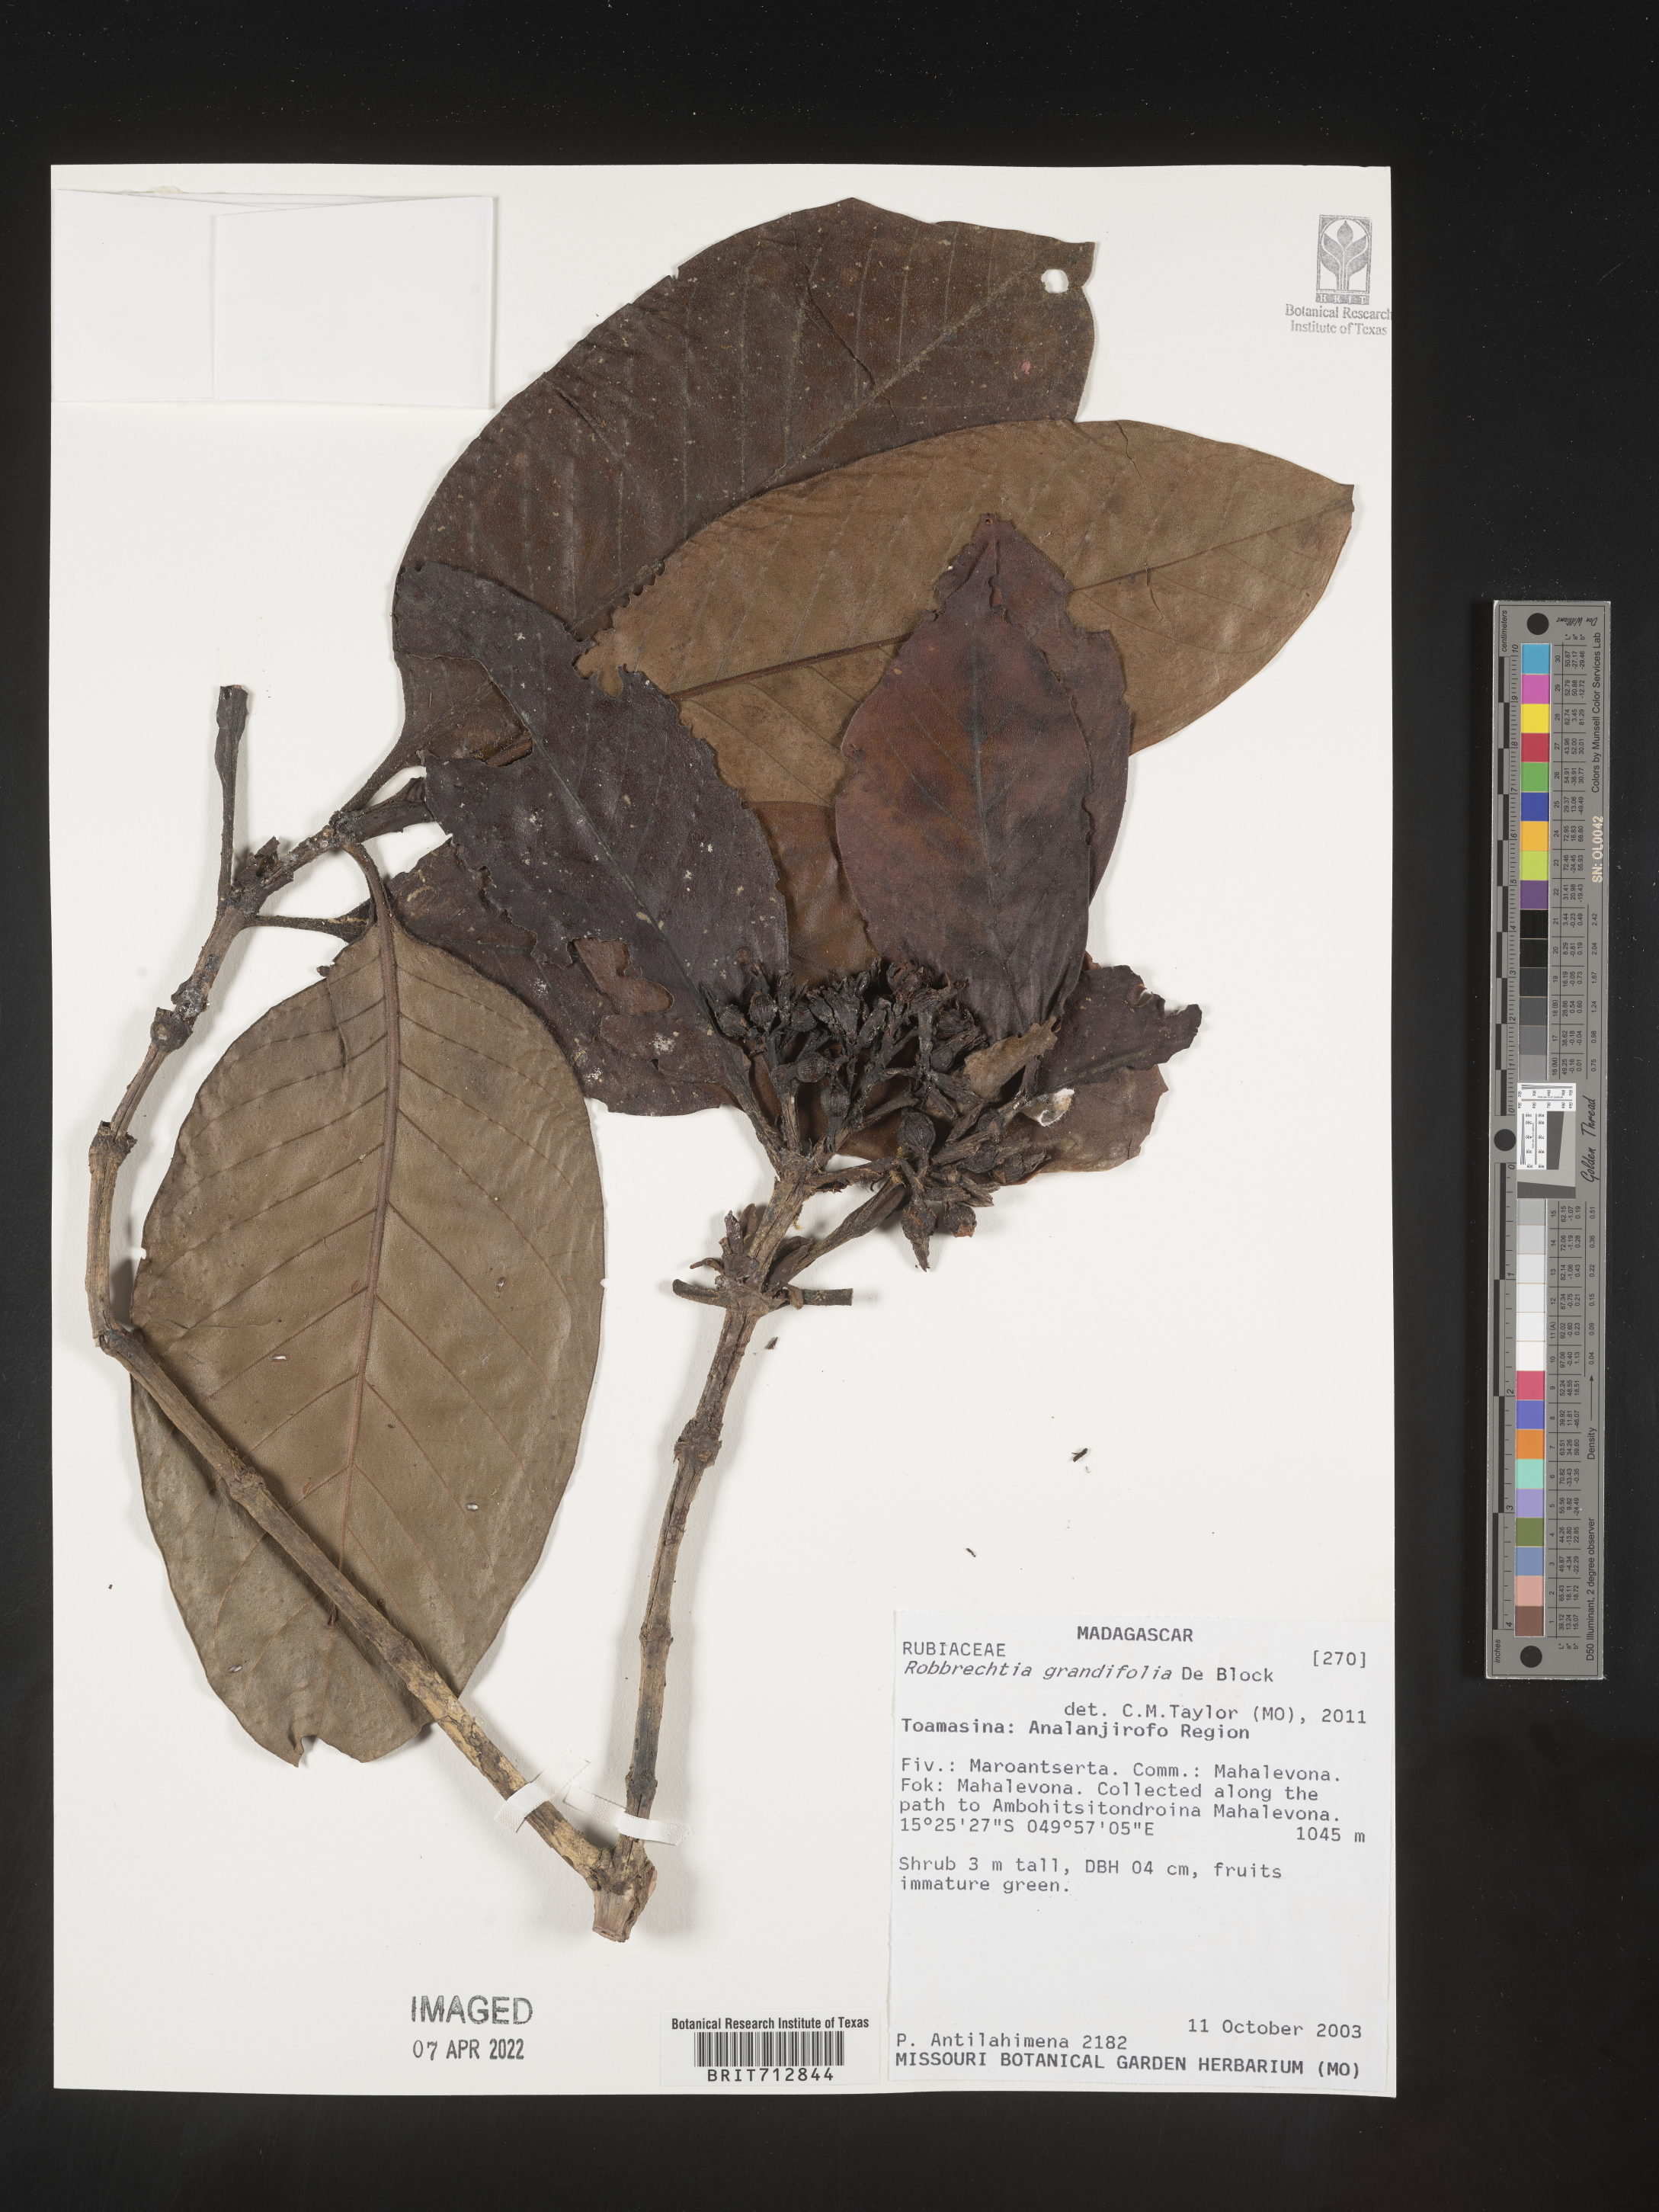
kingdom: Plantae
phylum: Tracheophyta
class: Magnoliopsida
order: Gentianales
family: Rubiaceae
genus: Robbrechtia
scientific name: Robbrechtia
